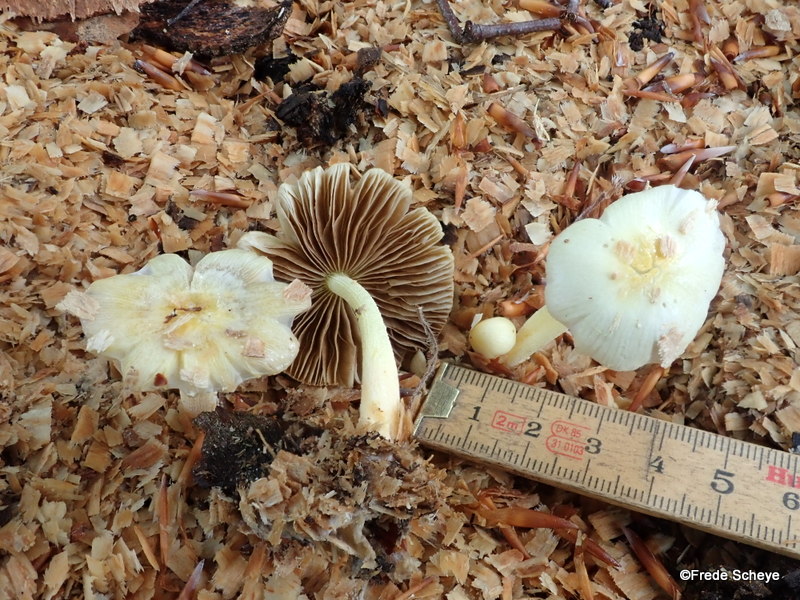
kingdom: Fungi
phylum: Basidiomycota
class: Agaricomycetes
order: Agaricales
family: Bolbitiaceae
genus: Bolbitius
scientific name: Bolbitius titubans
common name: almindelig gulhat
